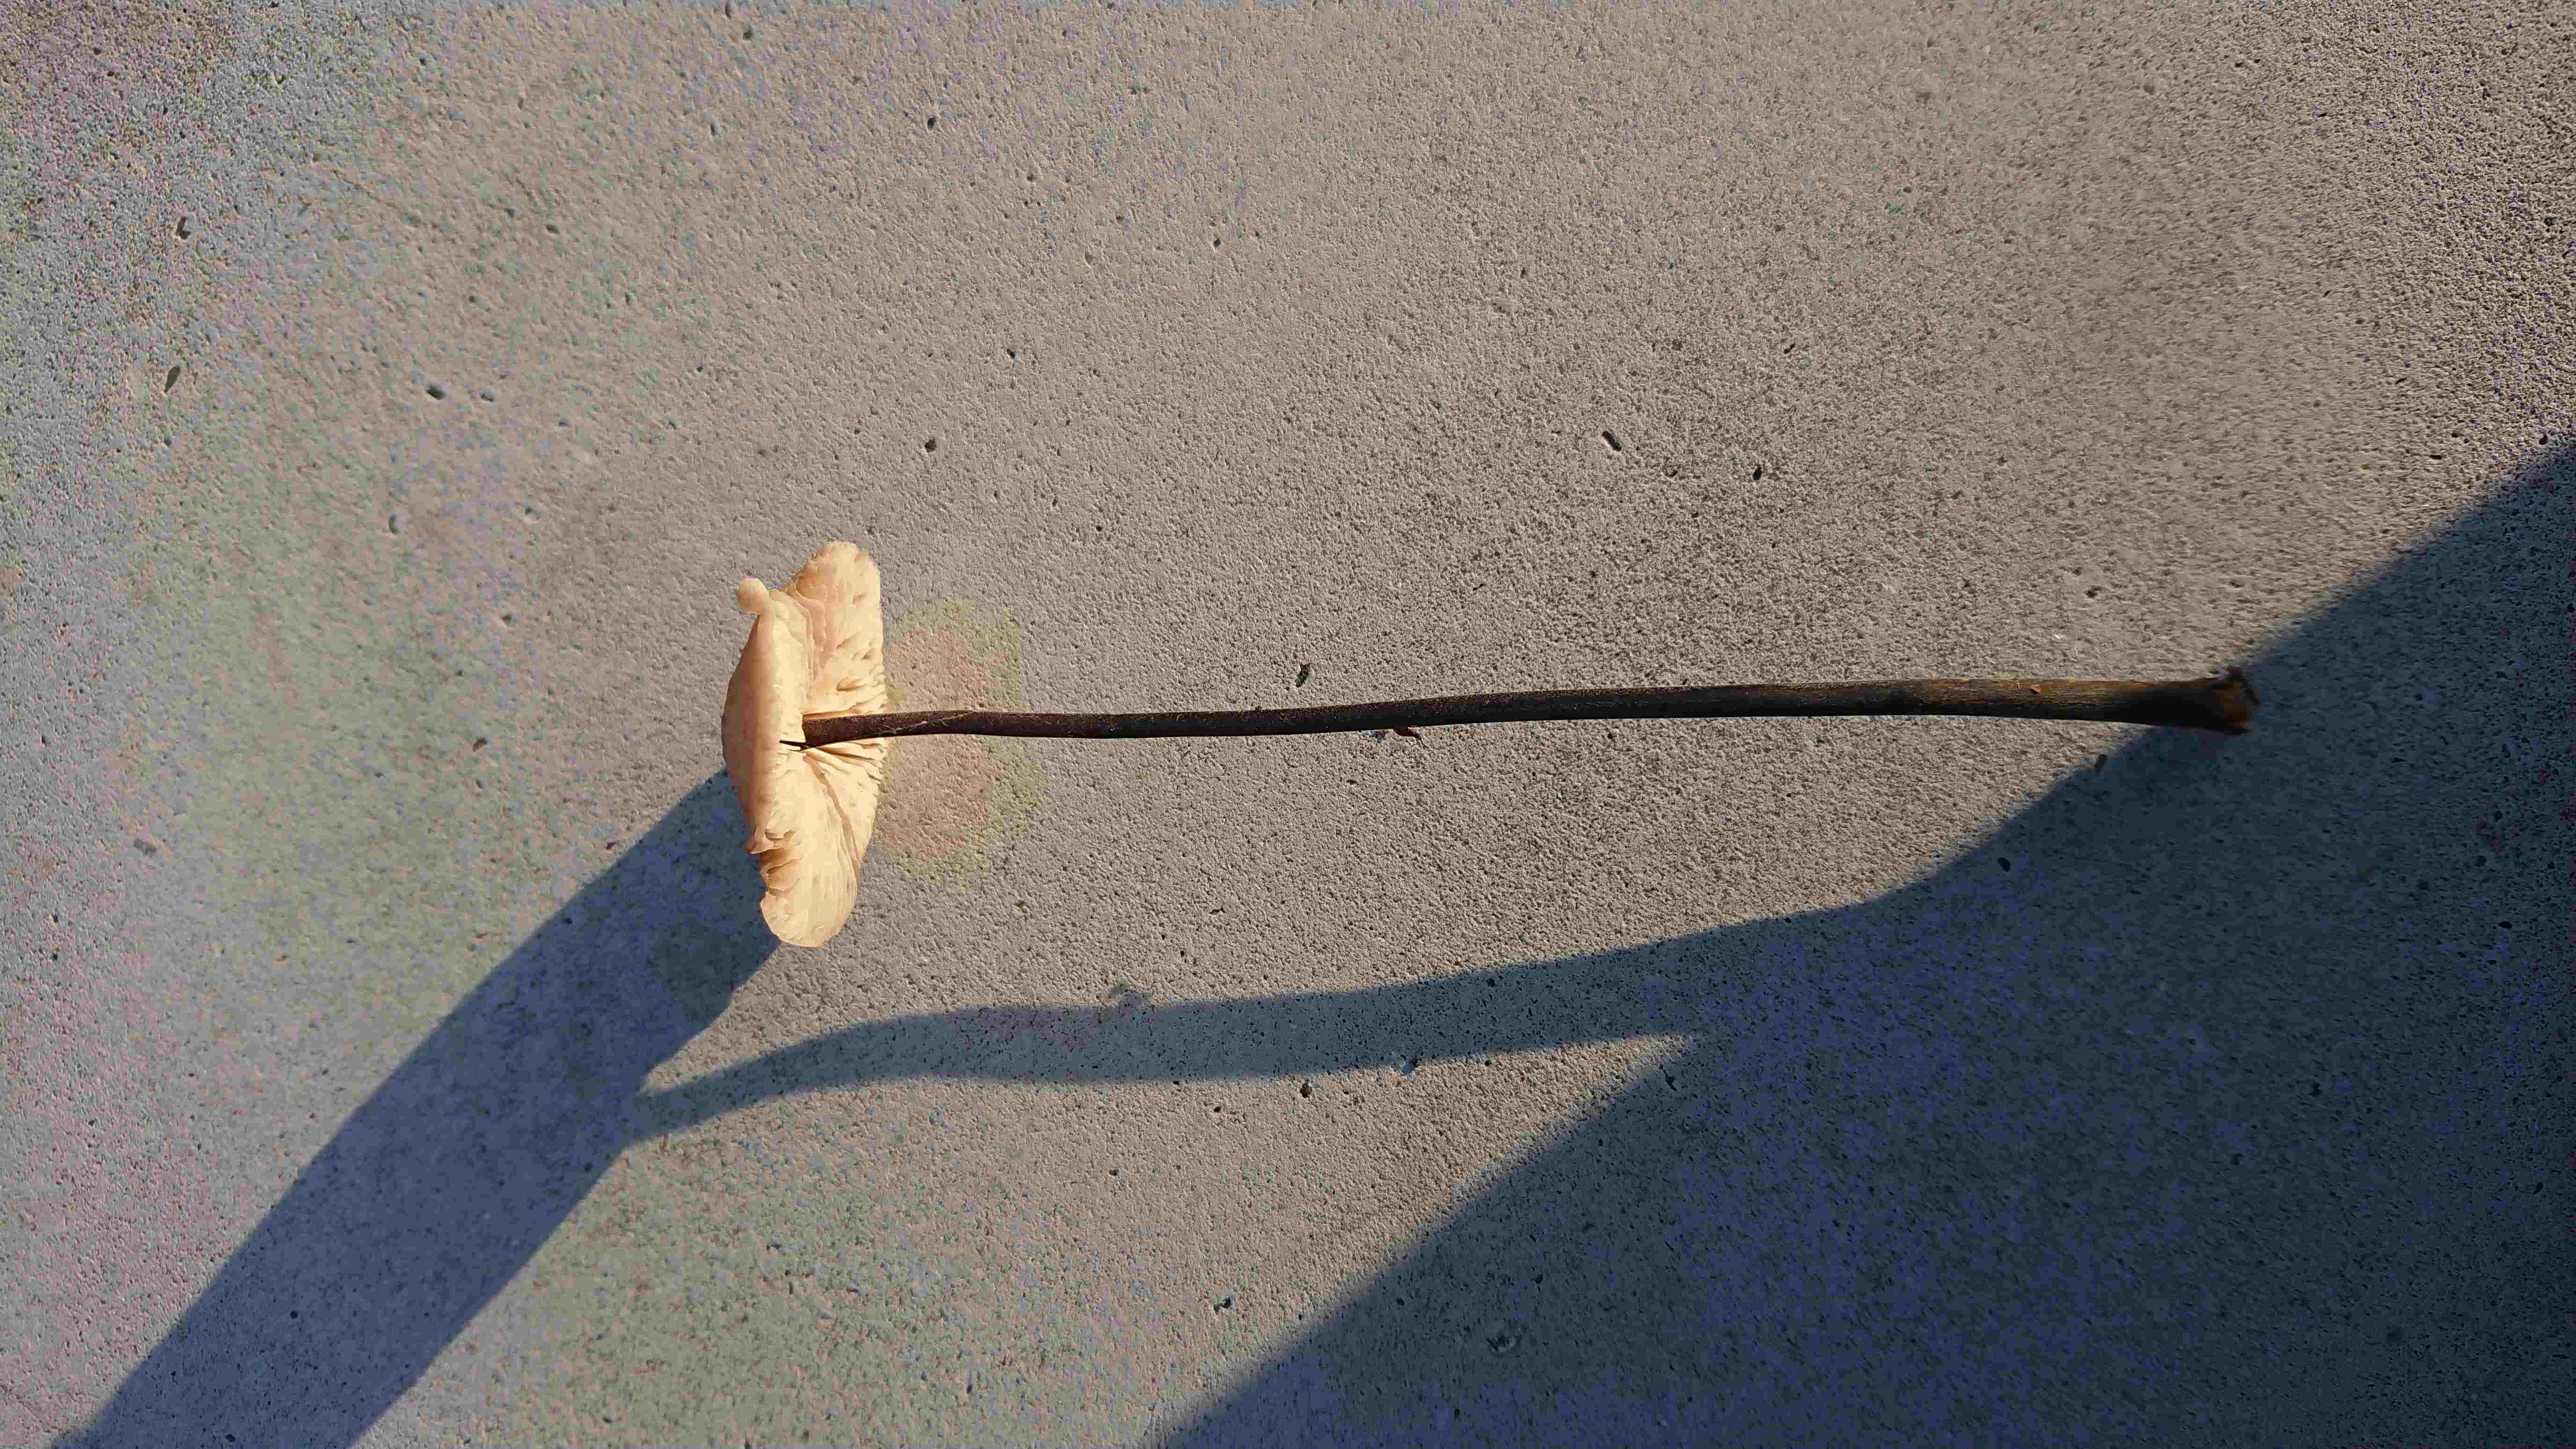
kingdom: Fungi
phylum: Basidiomycota
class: Agaricomycetes
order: Agaricales
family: Omphalotaceae
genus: Mycetinis
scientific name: Mycetinis alliaceus
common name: stor løghat
